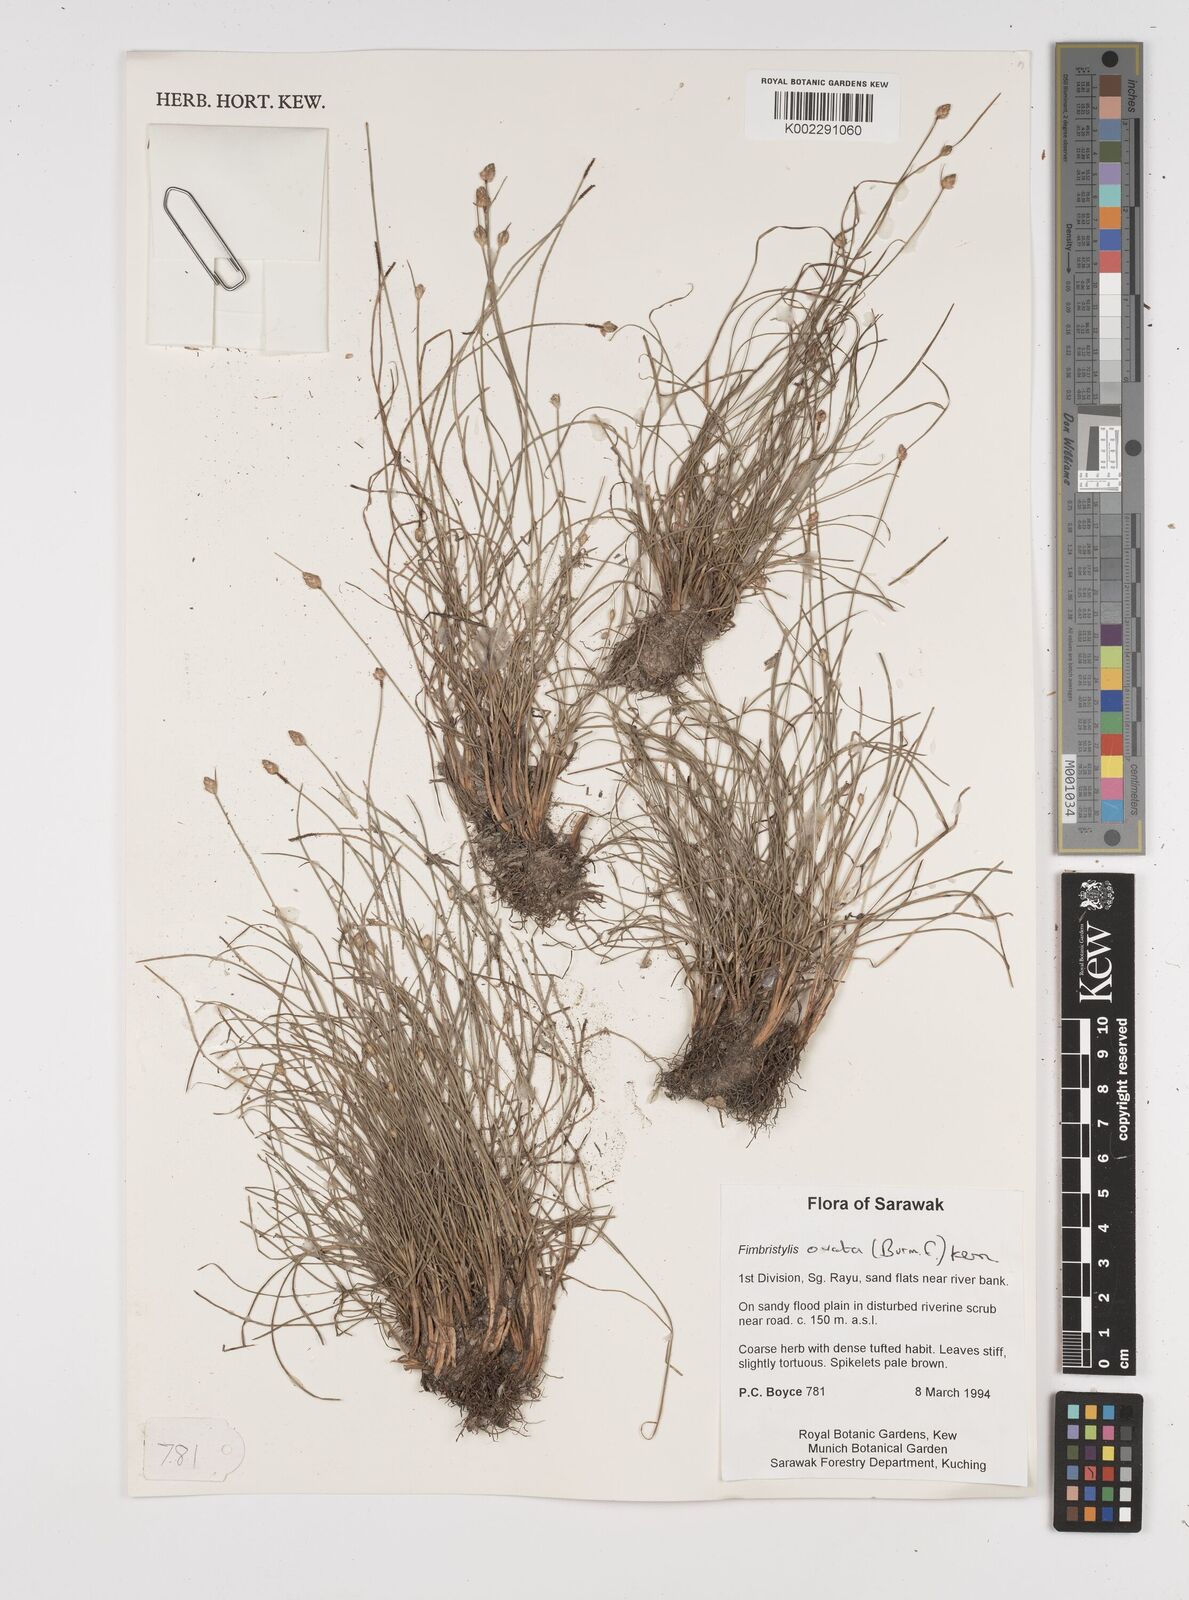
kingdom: Plantae
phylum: Tracheophyta
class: Liliopsida
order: Poales
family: Cyperaceae
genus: Abildgaardia
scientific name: Abildgaardia ovata
